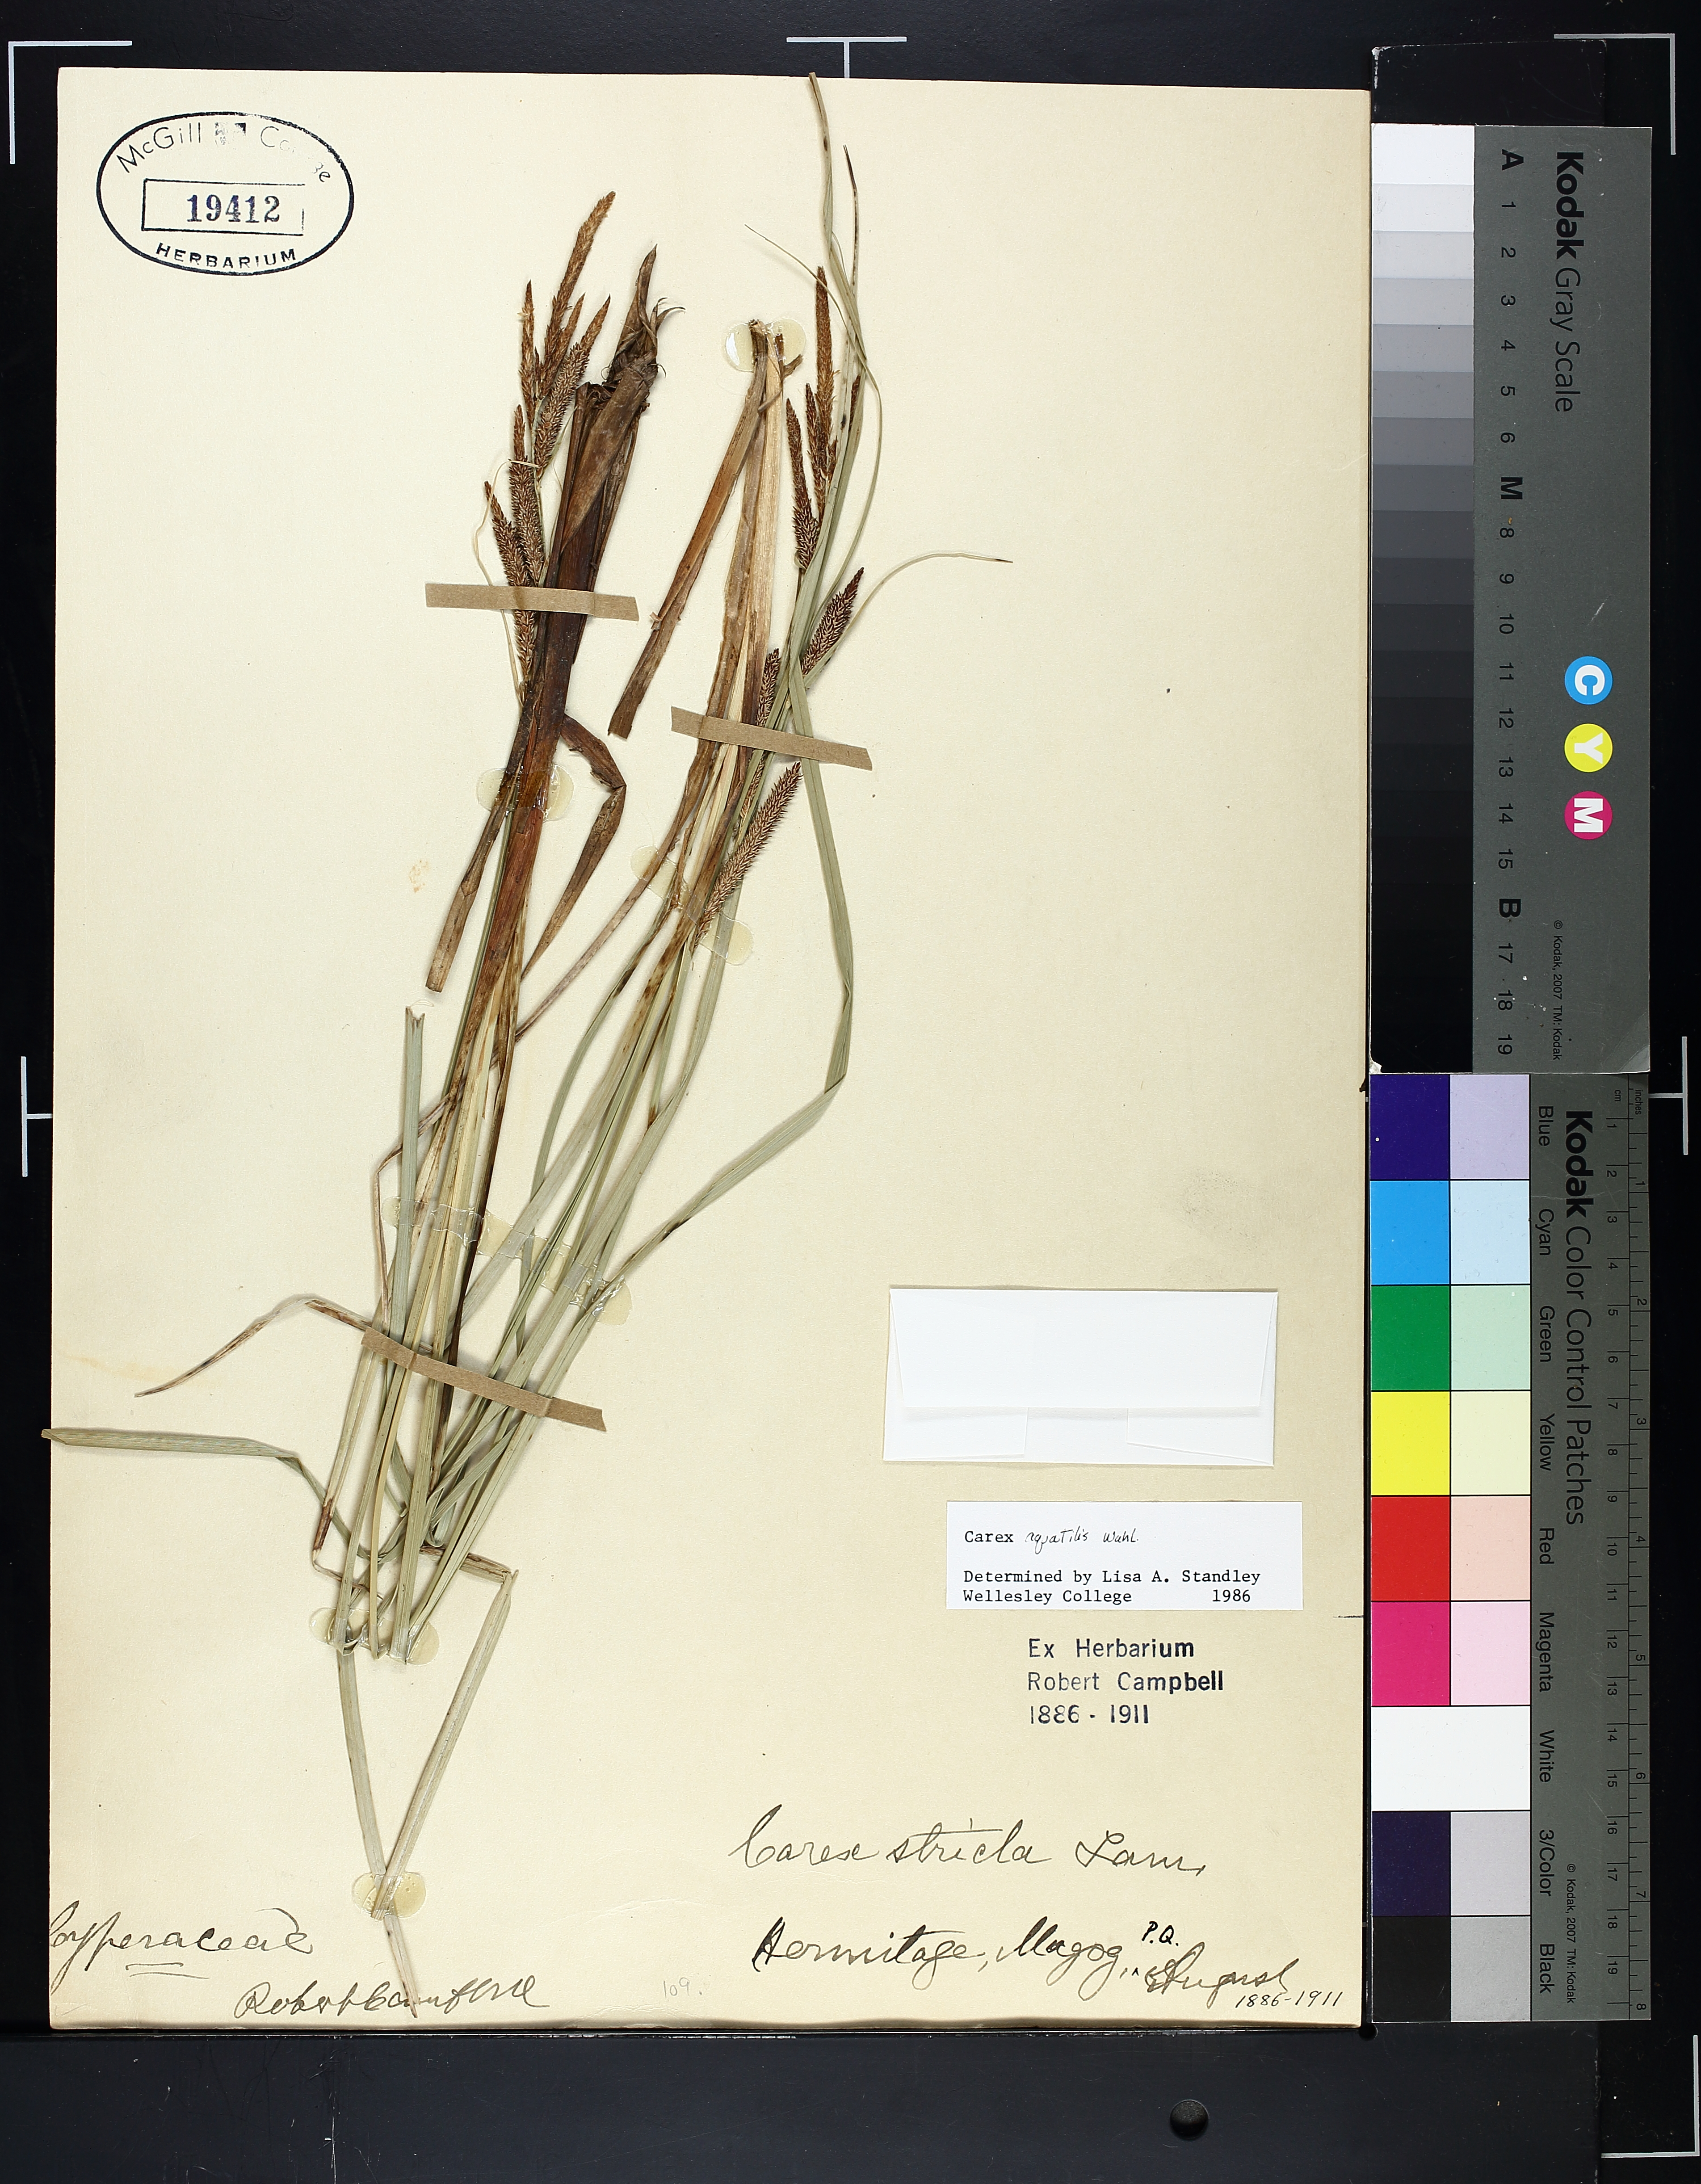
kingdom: Plantae
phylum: Tracheophyta
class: Liliopsida
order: Poales
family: Cyperaceae
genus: Carex
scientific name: Carex aquatilis
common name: Water sedge
